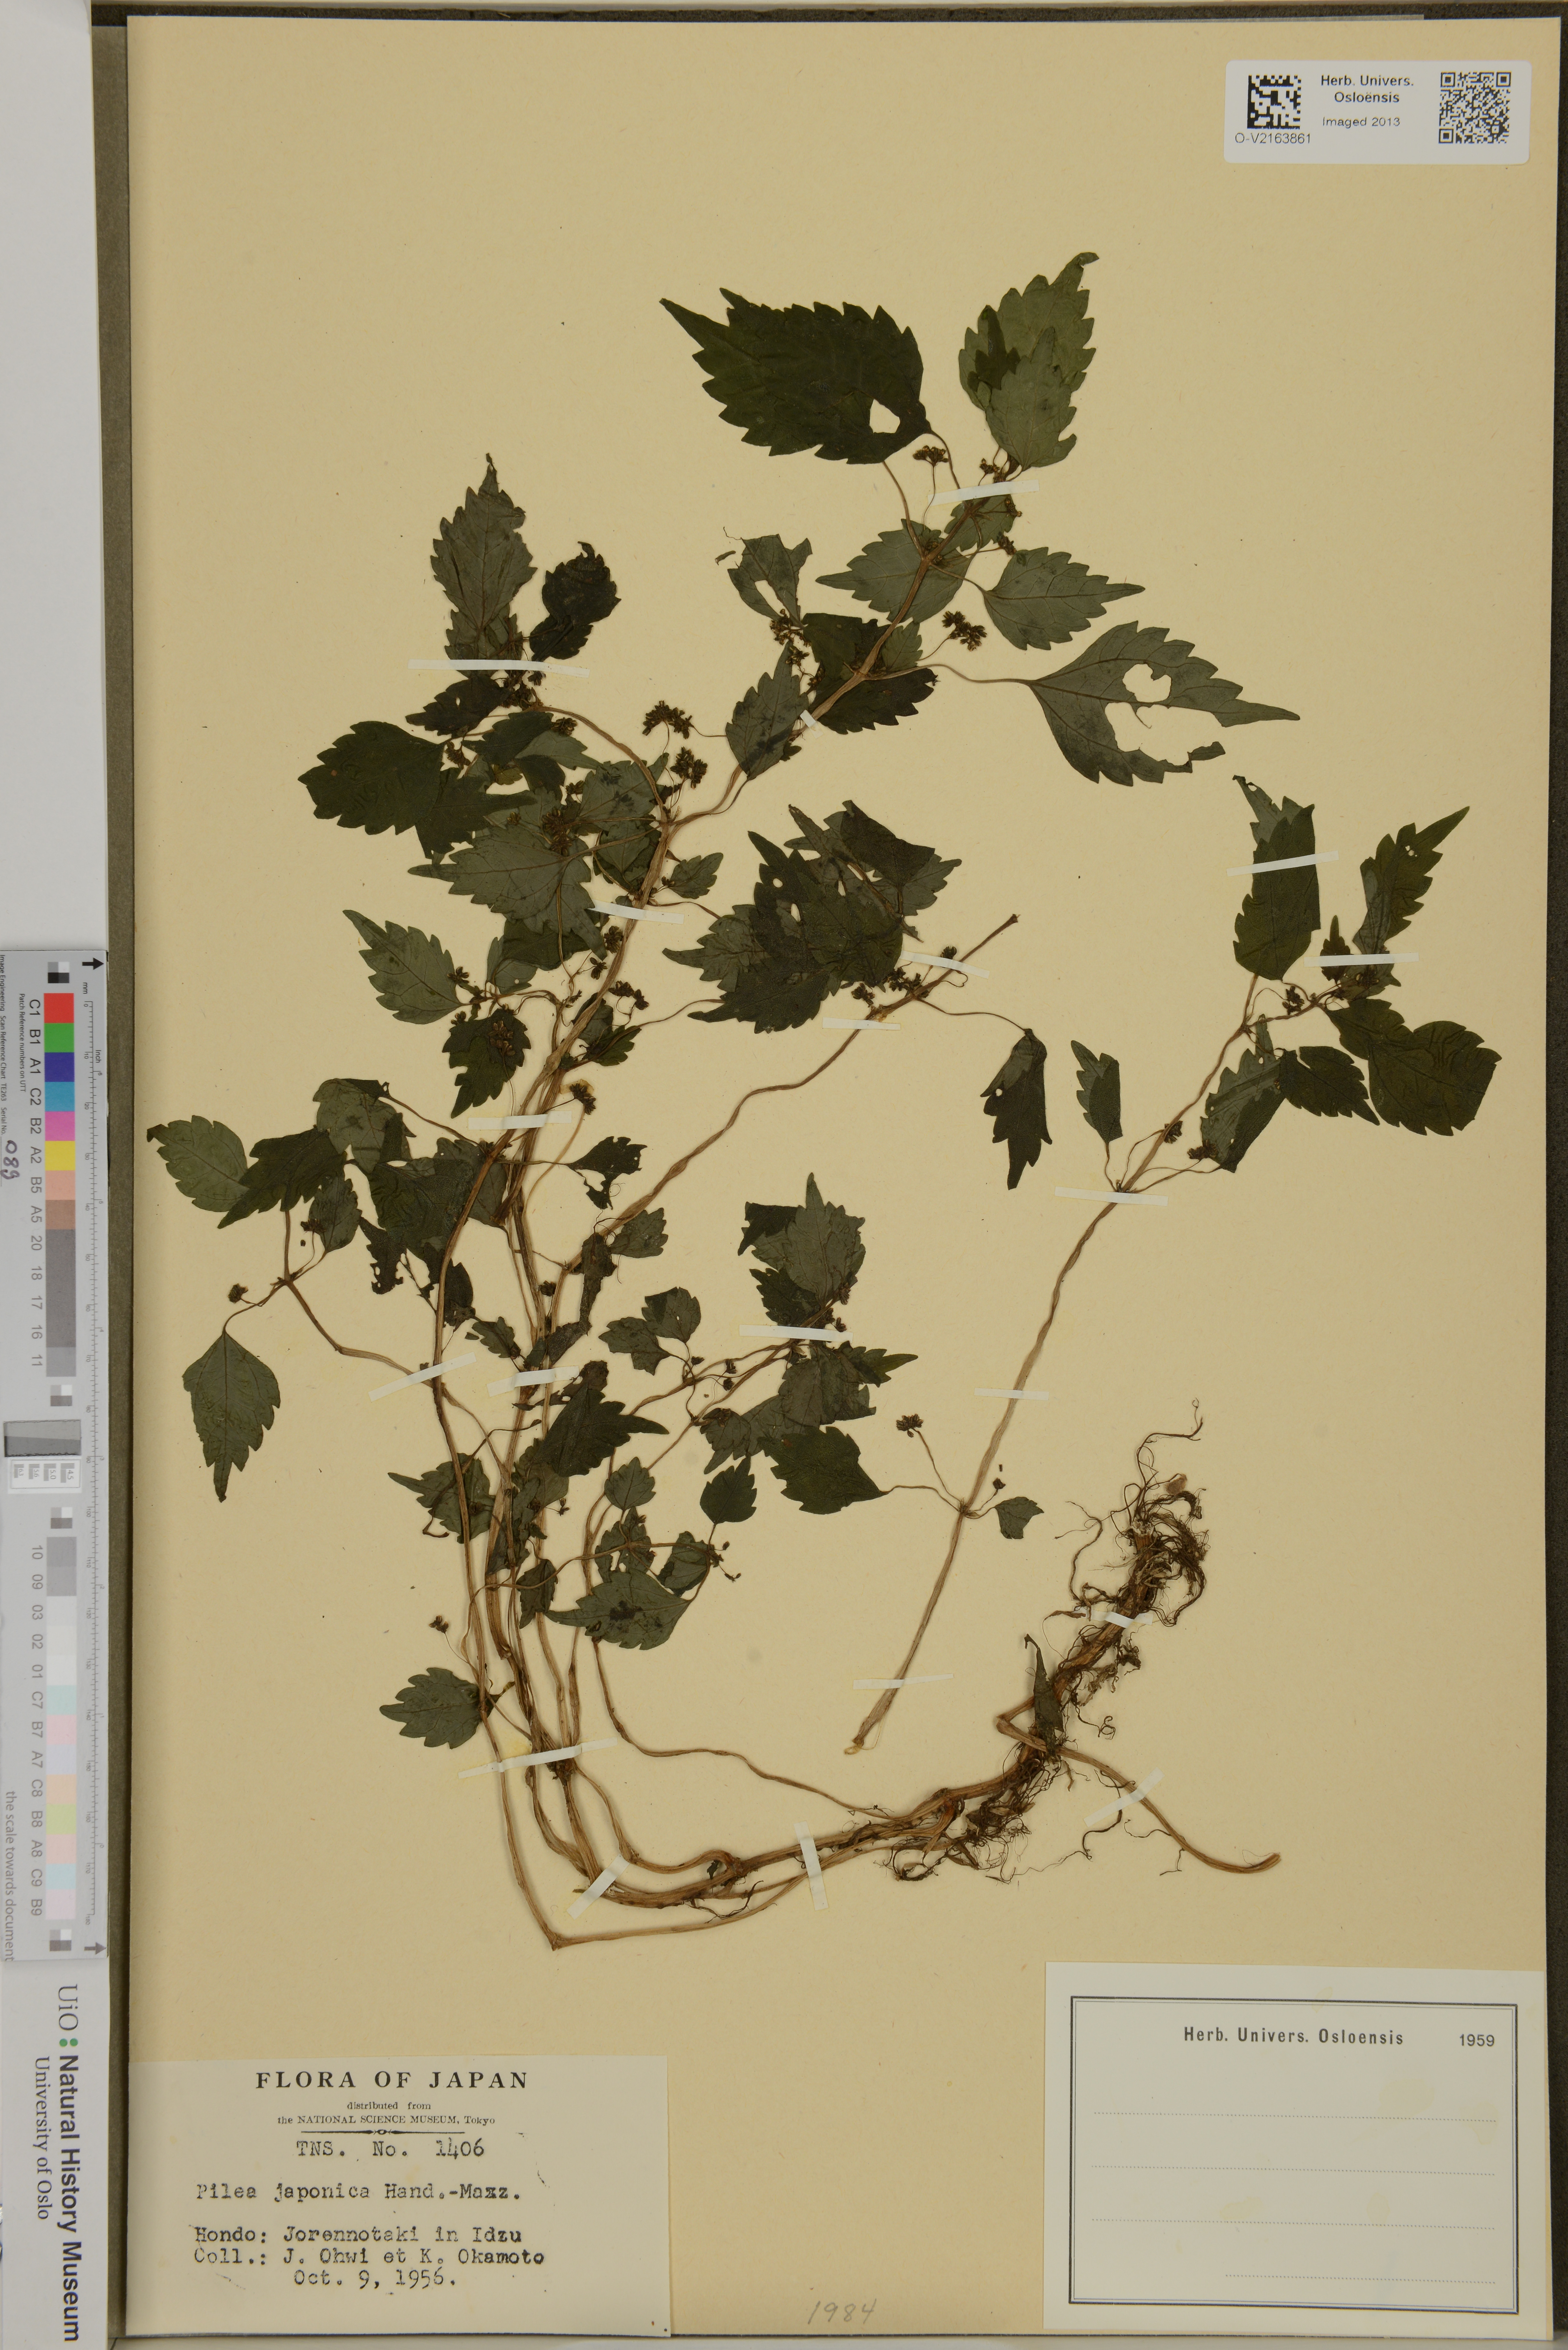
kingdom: Plantae
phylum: Tracheophyta
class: Magnoliopsida
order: Rosales
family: Urticaceae
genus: Achudemia
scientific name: Achudemia japonica
